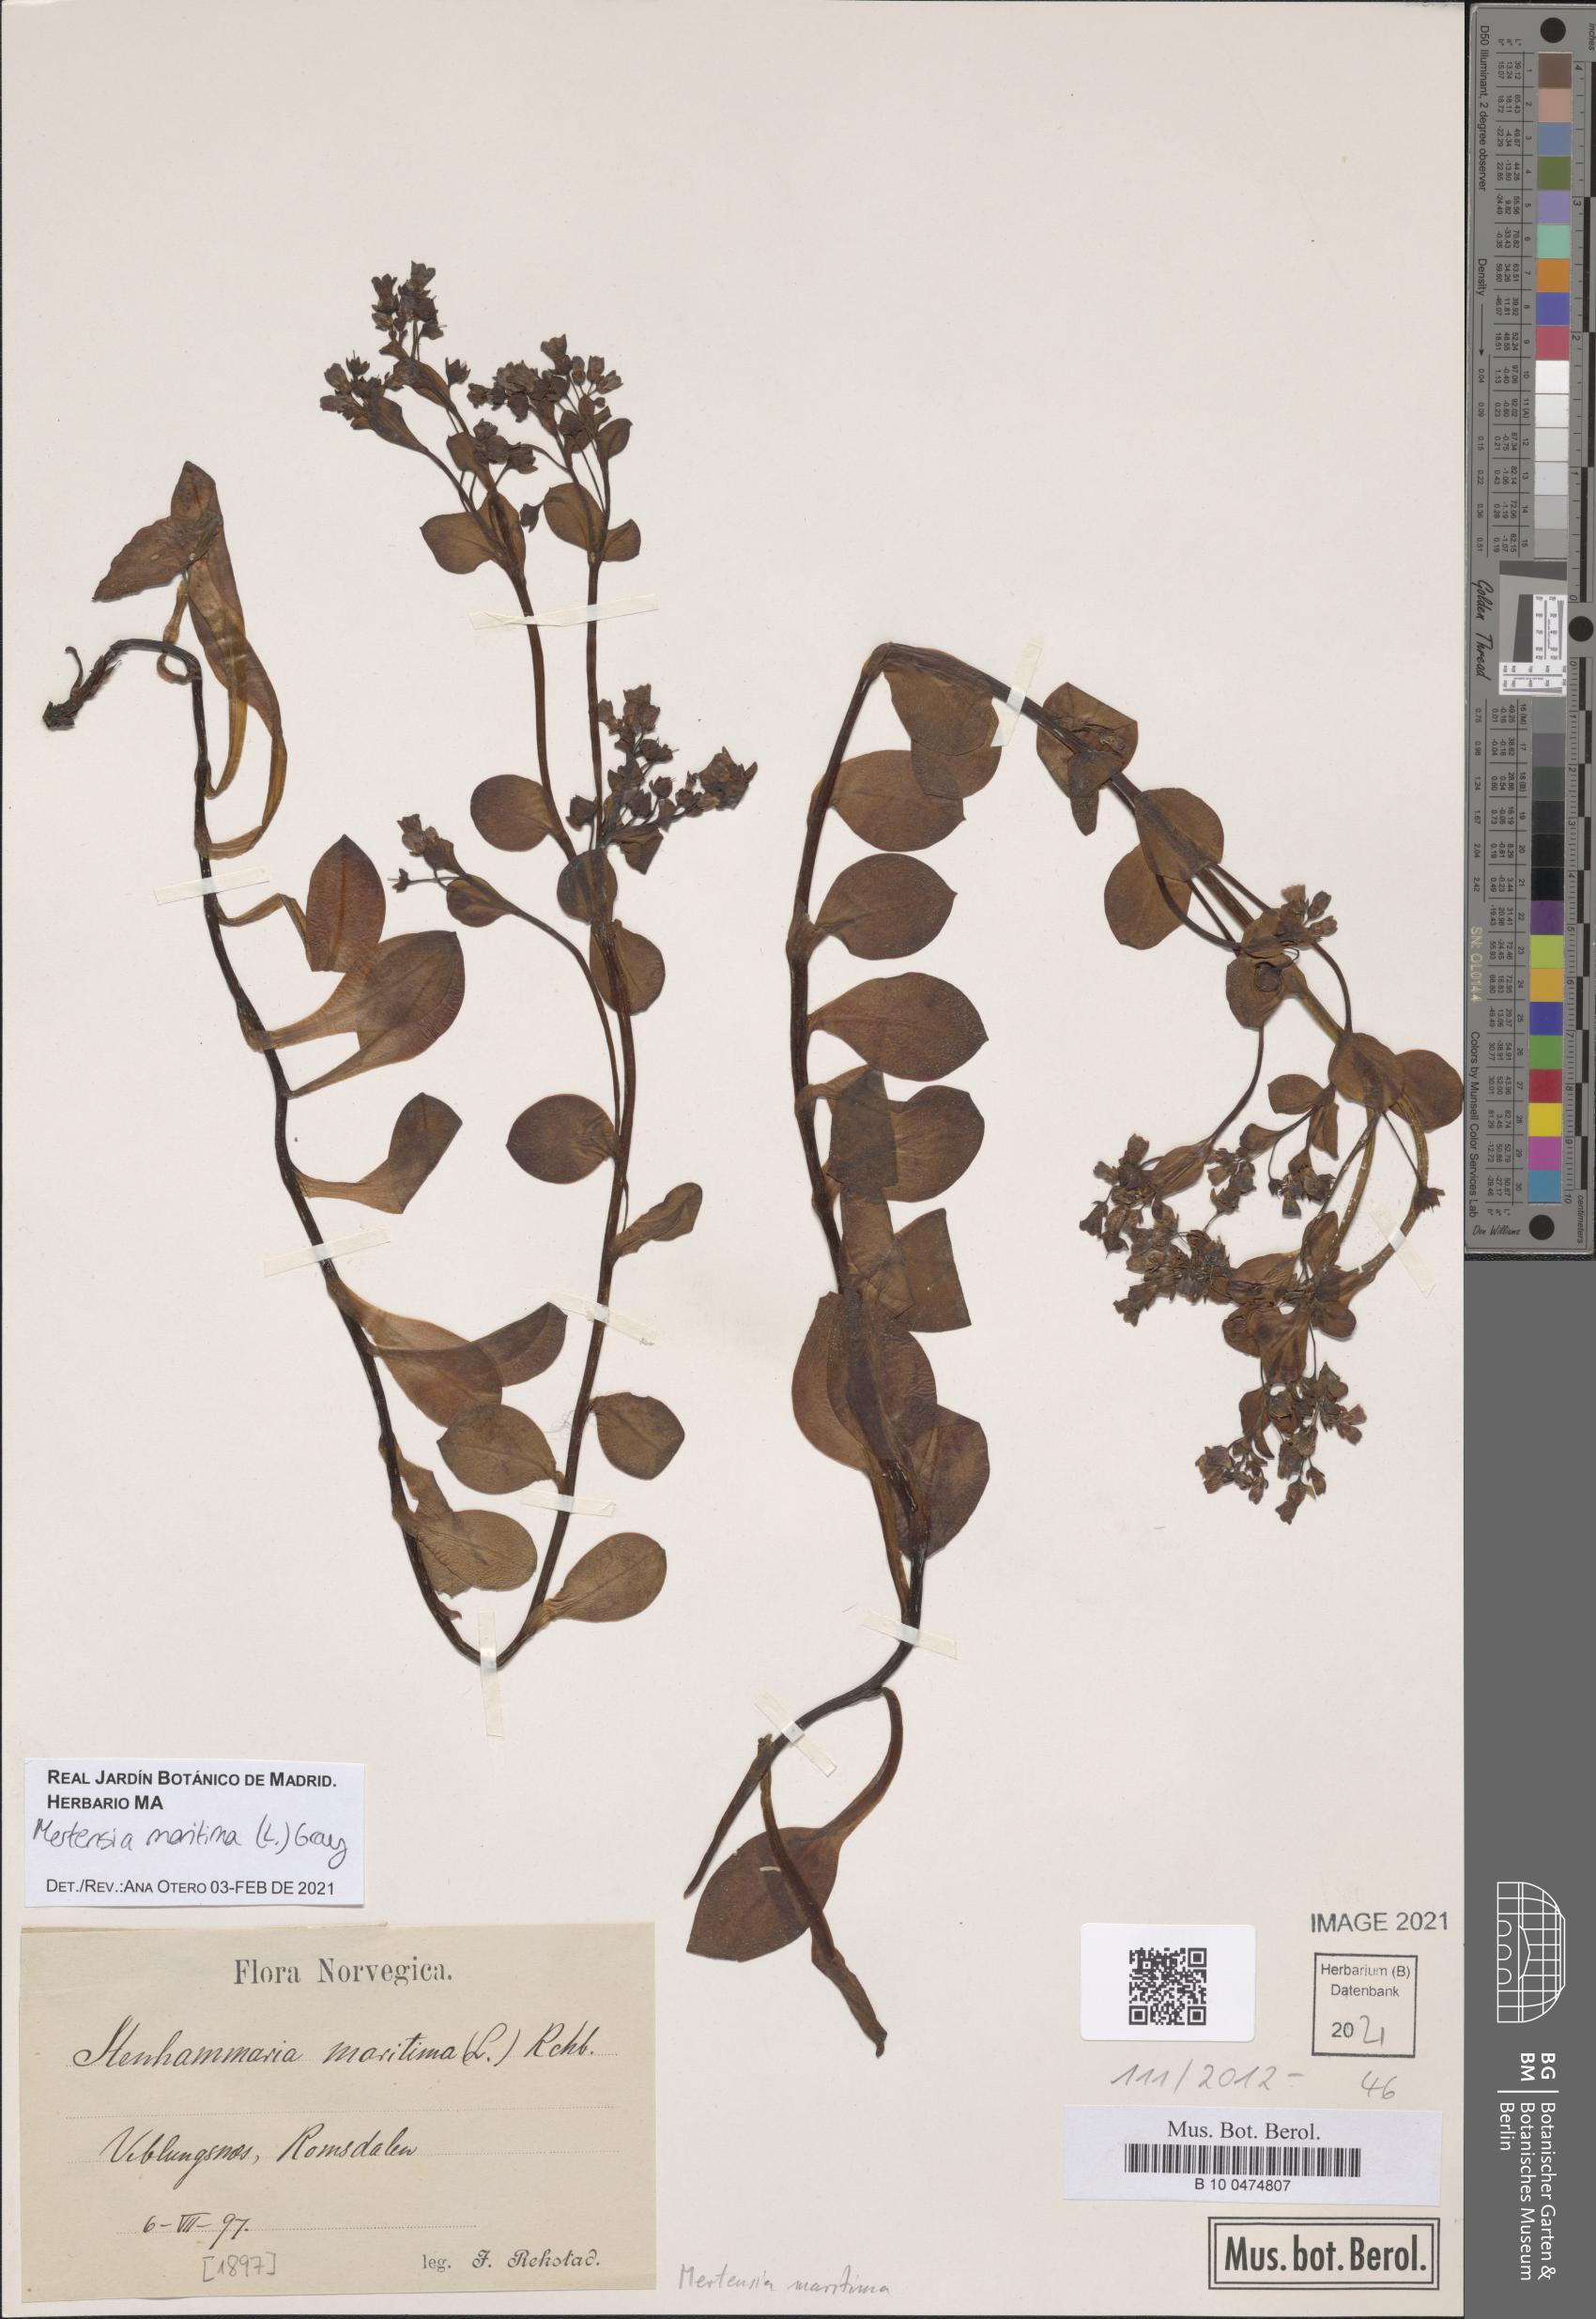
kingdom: Plantae
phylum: Tracheophyta
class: Magnoliopsida
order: Boraginales
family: Boraginaceae
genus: Mertensia
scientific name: Mertensia maritima
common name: Oysterplant
